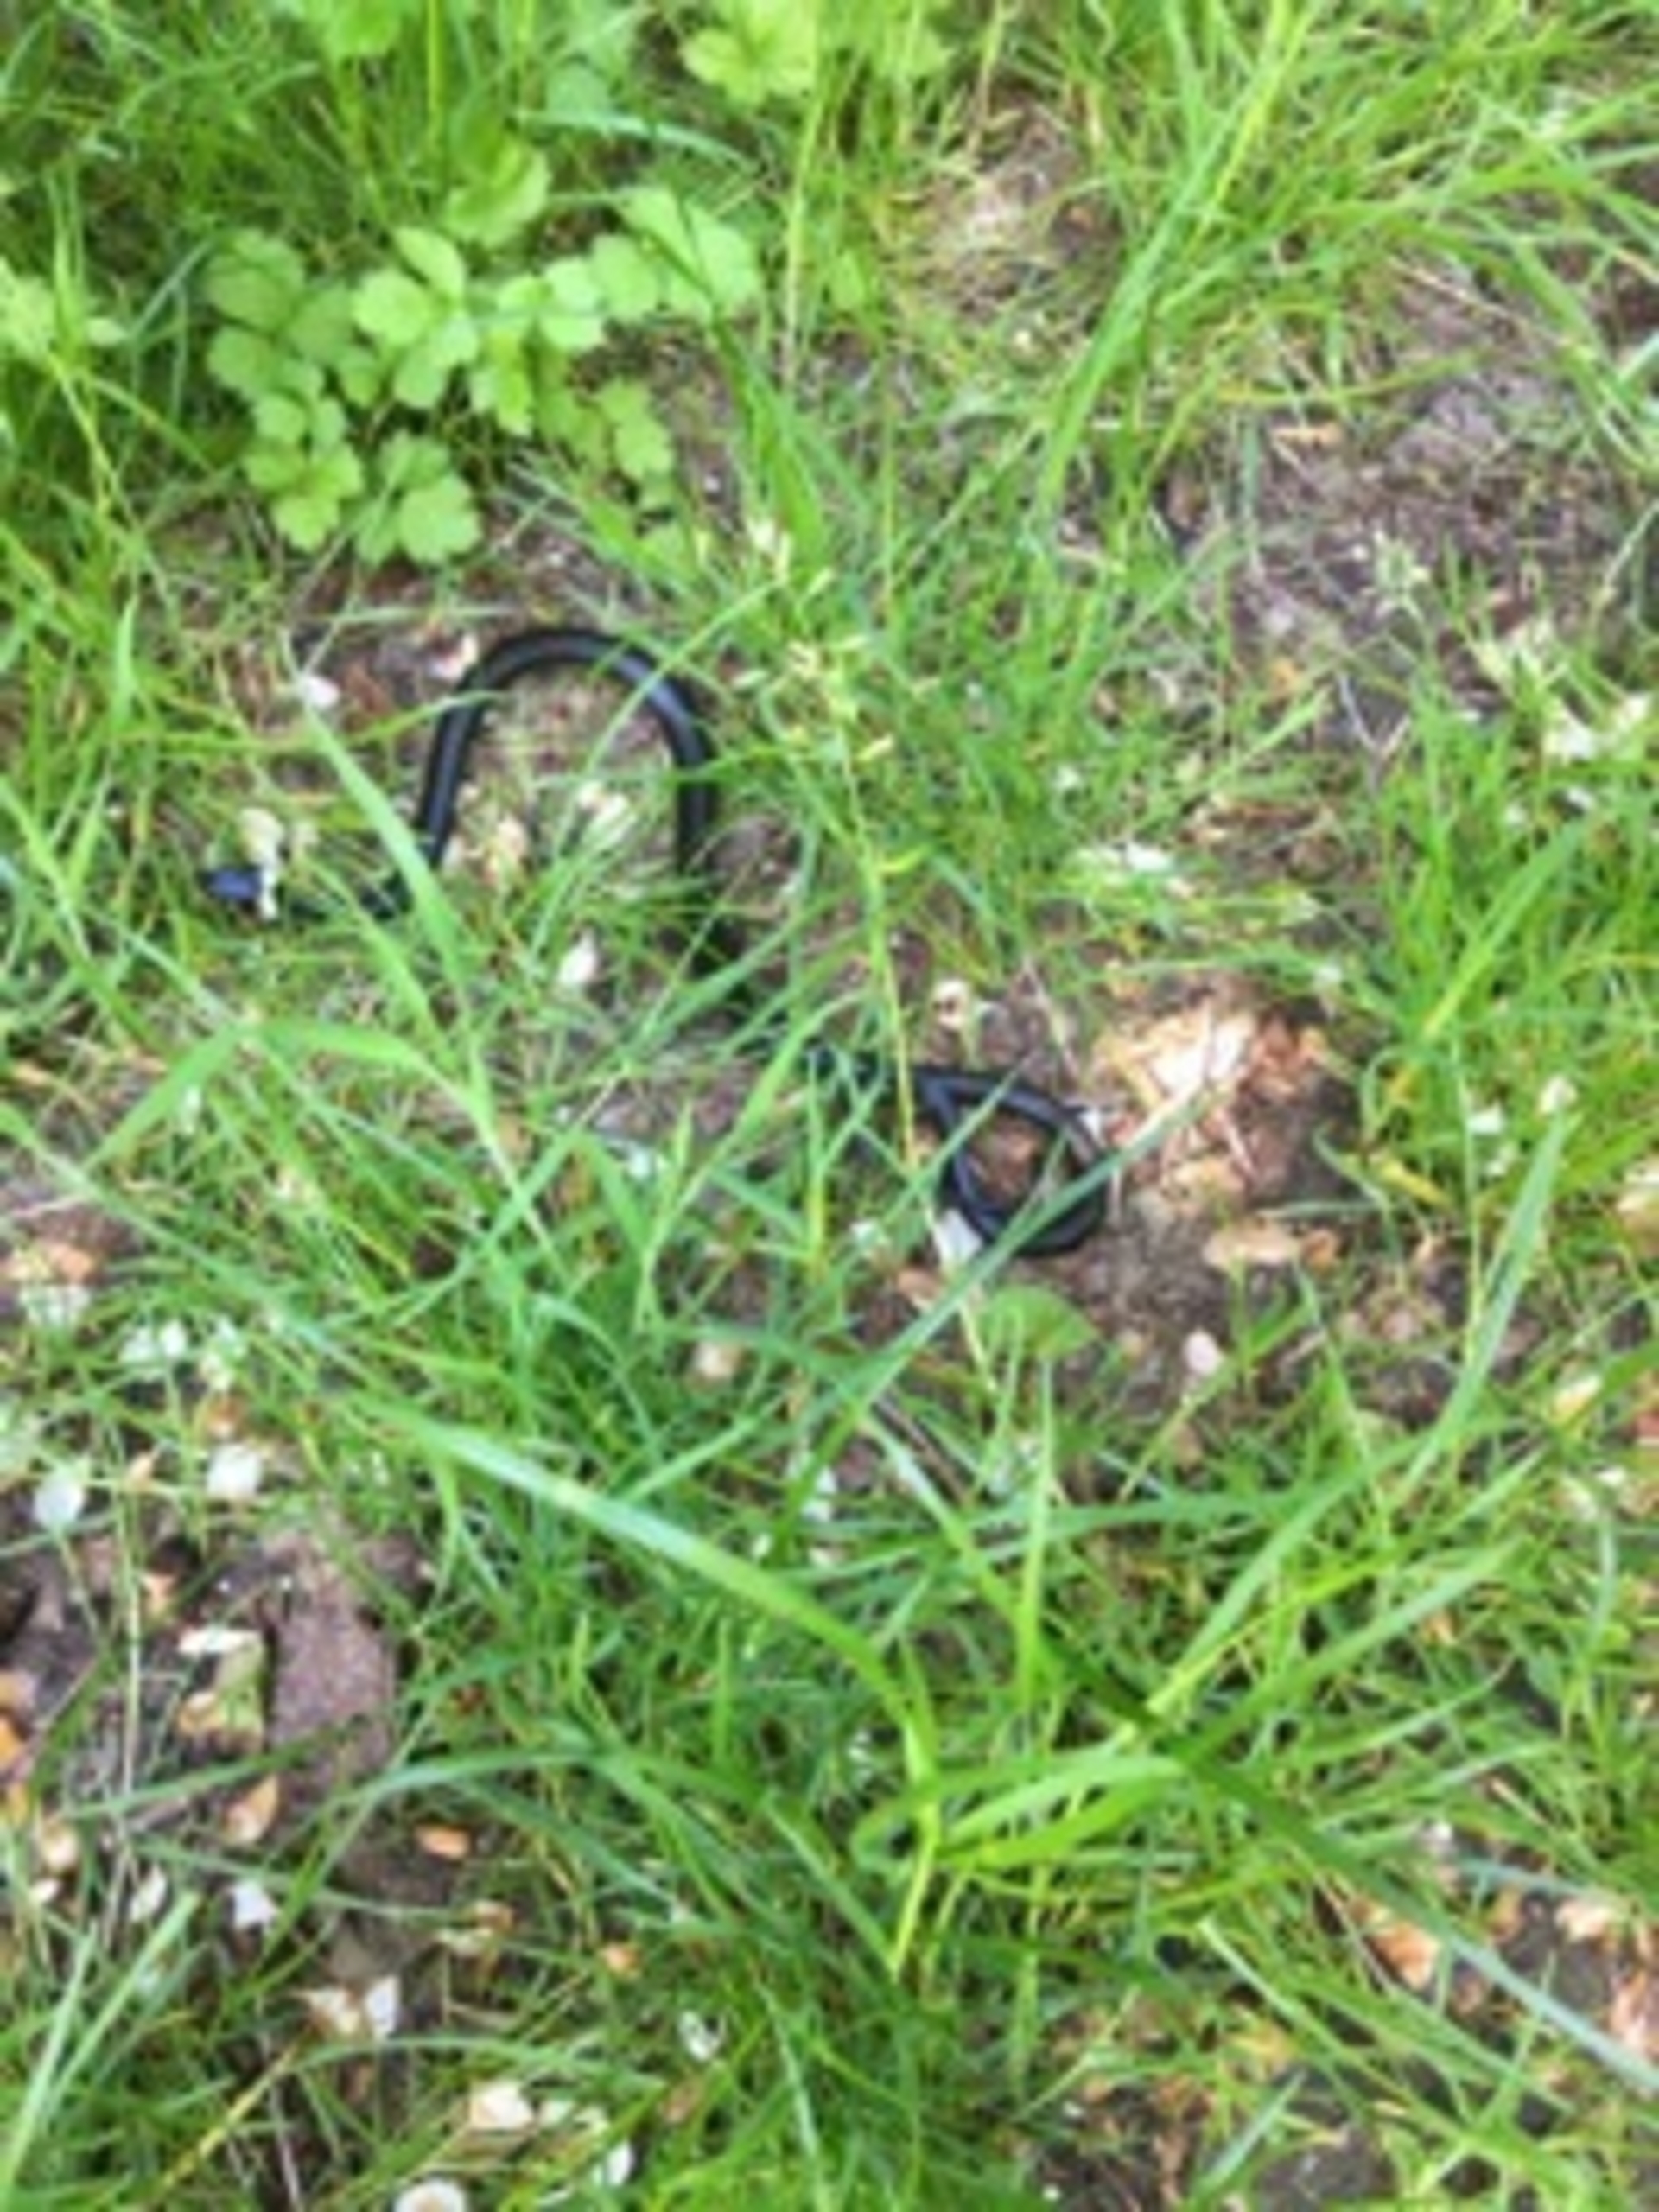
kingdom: Animalia
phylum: Chordata
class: Squamata
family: Colubridae
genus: Natrix
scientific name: Natrix natrix
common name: Snog
